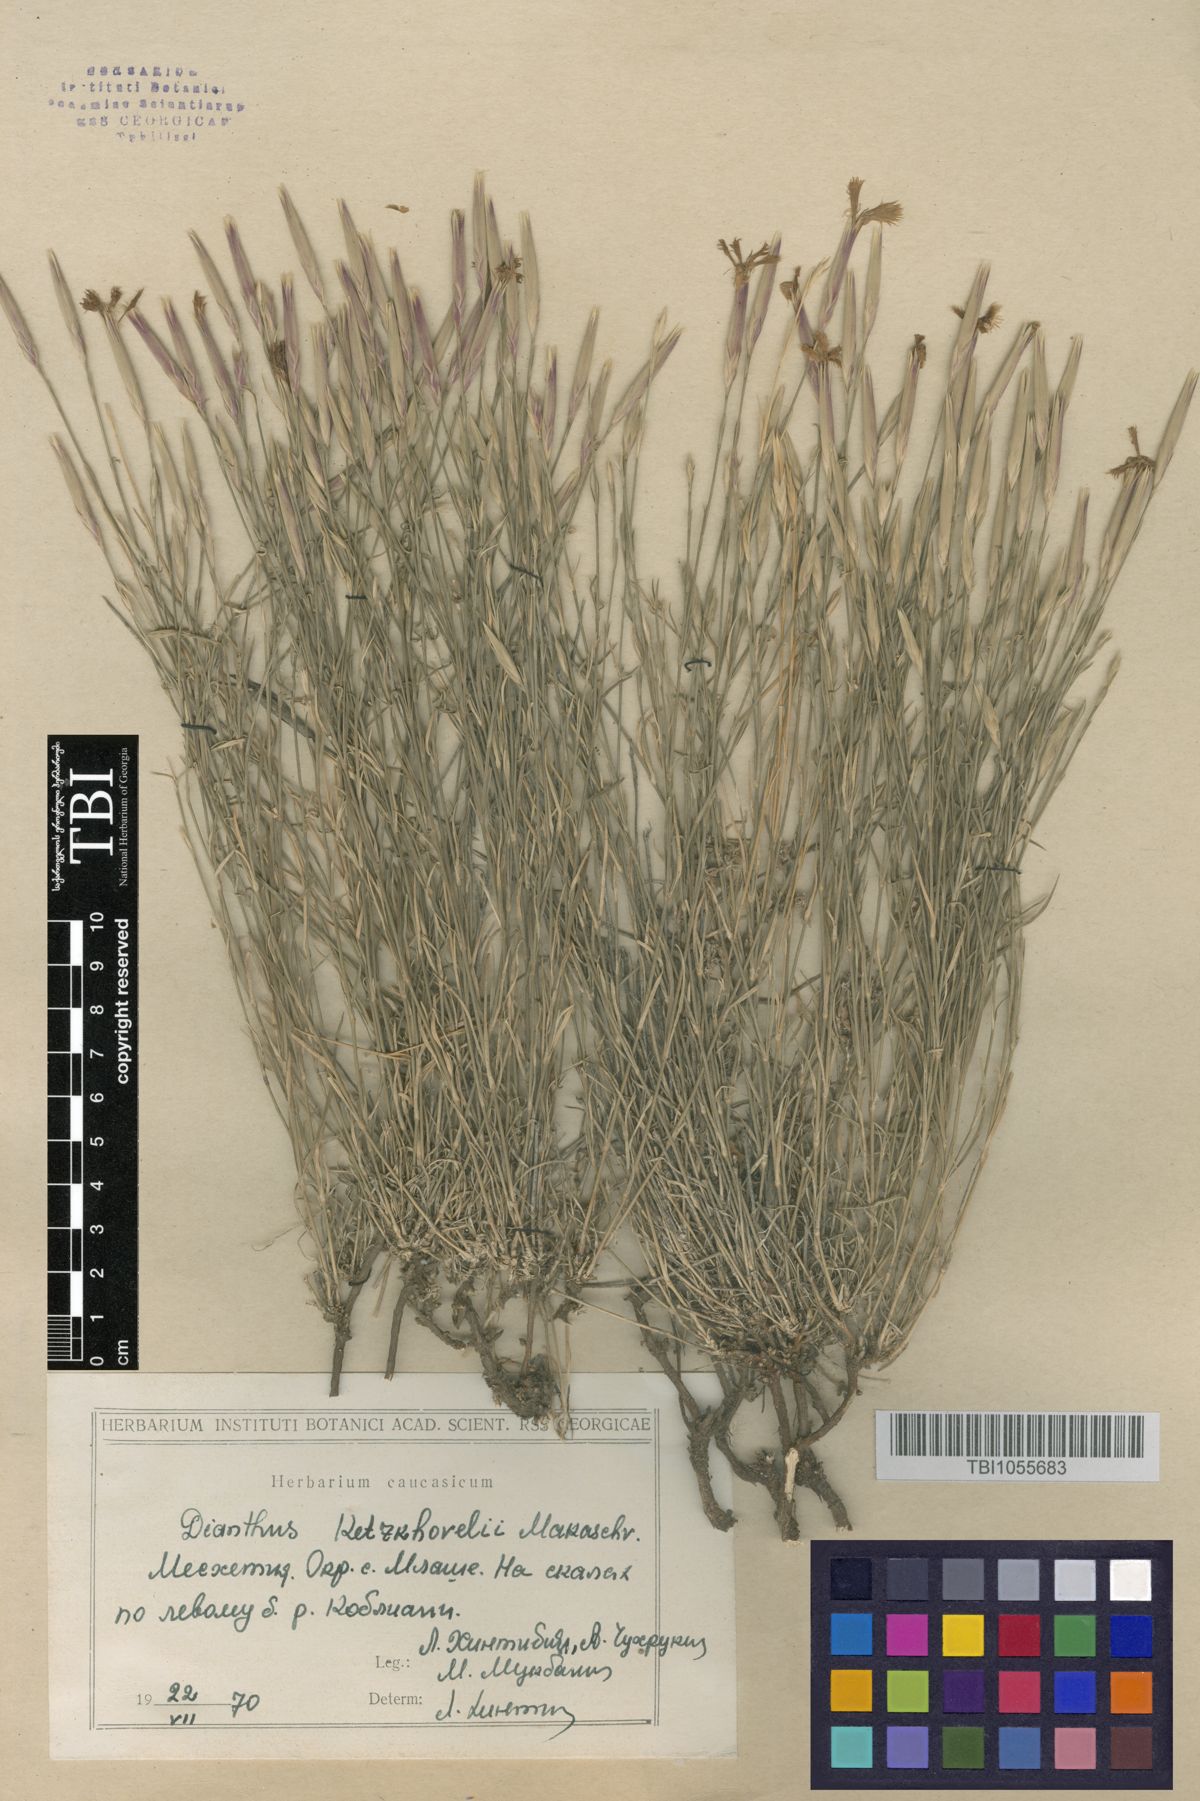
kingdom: Plantae
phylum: Tracheophyta
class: Magnoliopsida
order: Caryophyllales
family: Caryophyllaceae
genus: Dianthus
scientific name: Dianthus orientalis
